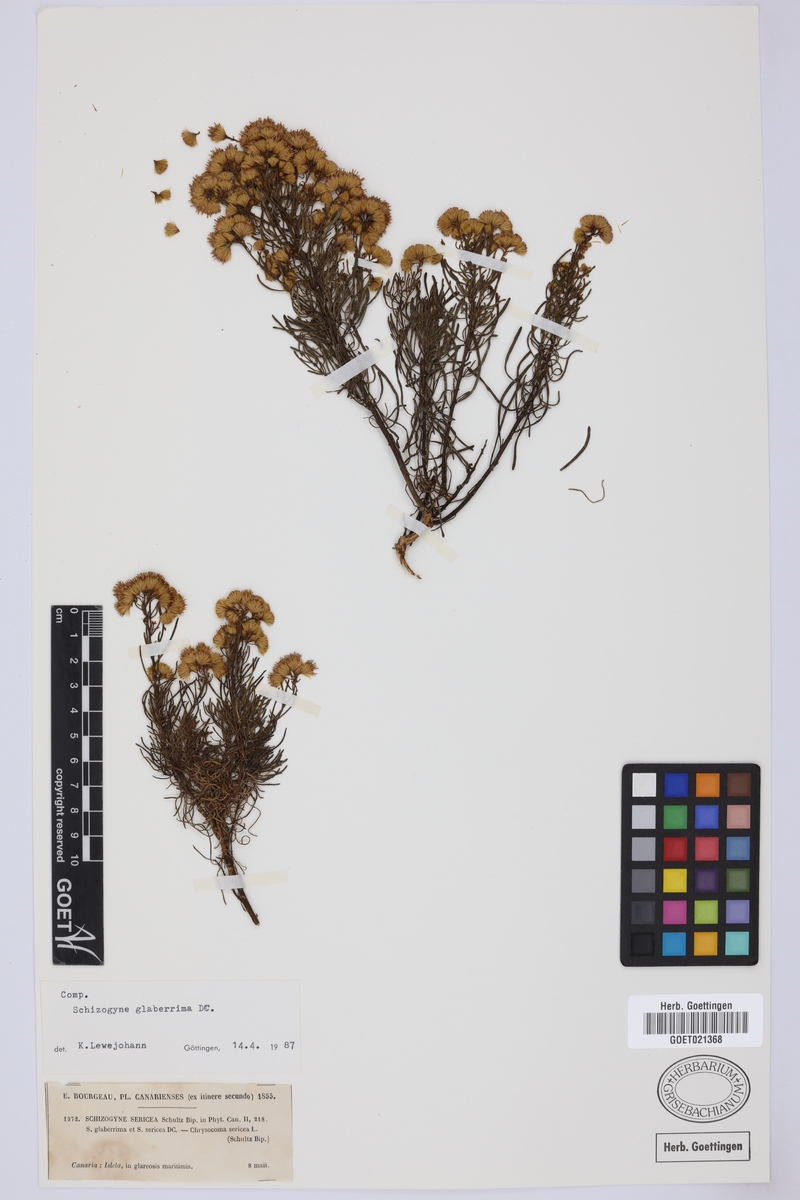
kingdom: Plantae
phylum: Tracheophyta
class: Magnoliopsida
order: Asterales
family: Asteraceae
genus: Schizogyne
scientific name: Schizogyne glaberrima
